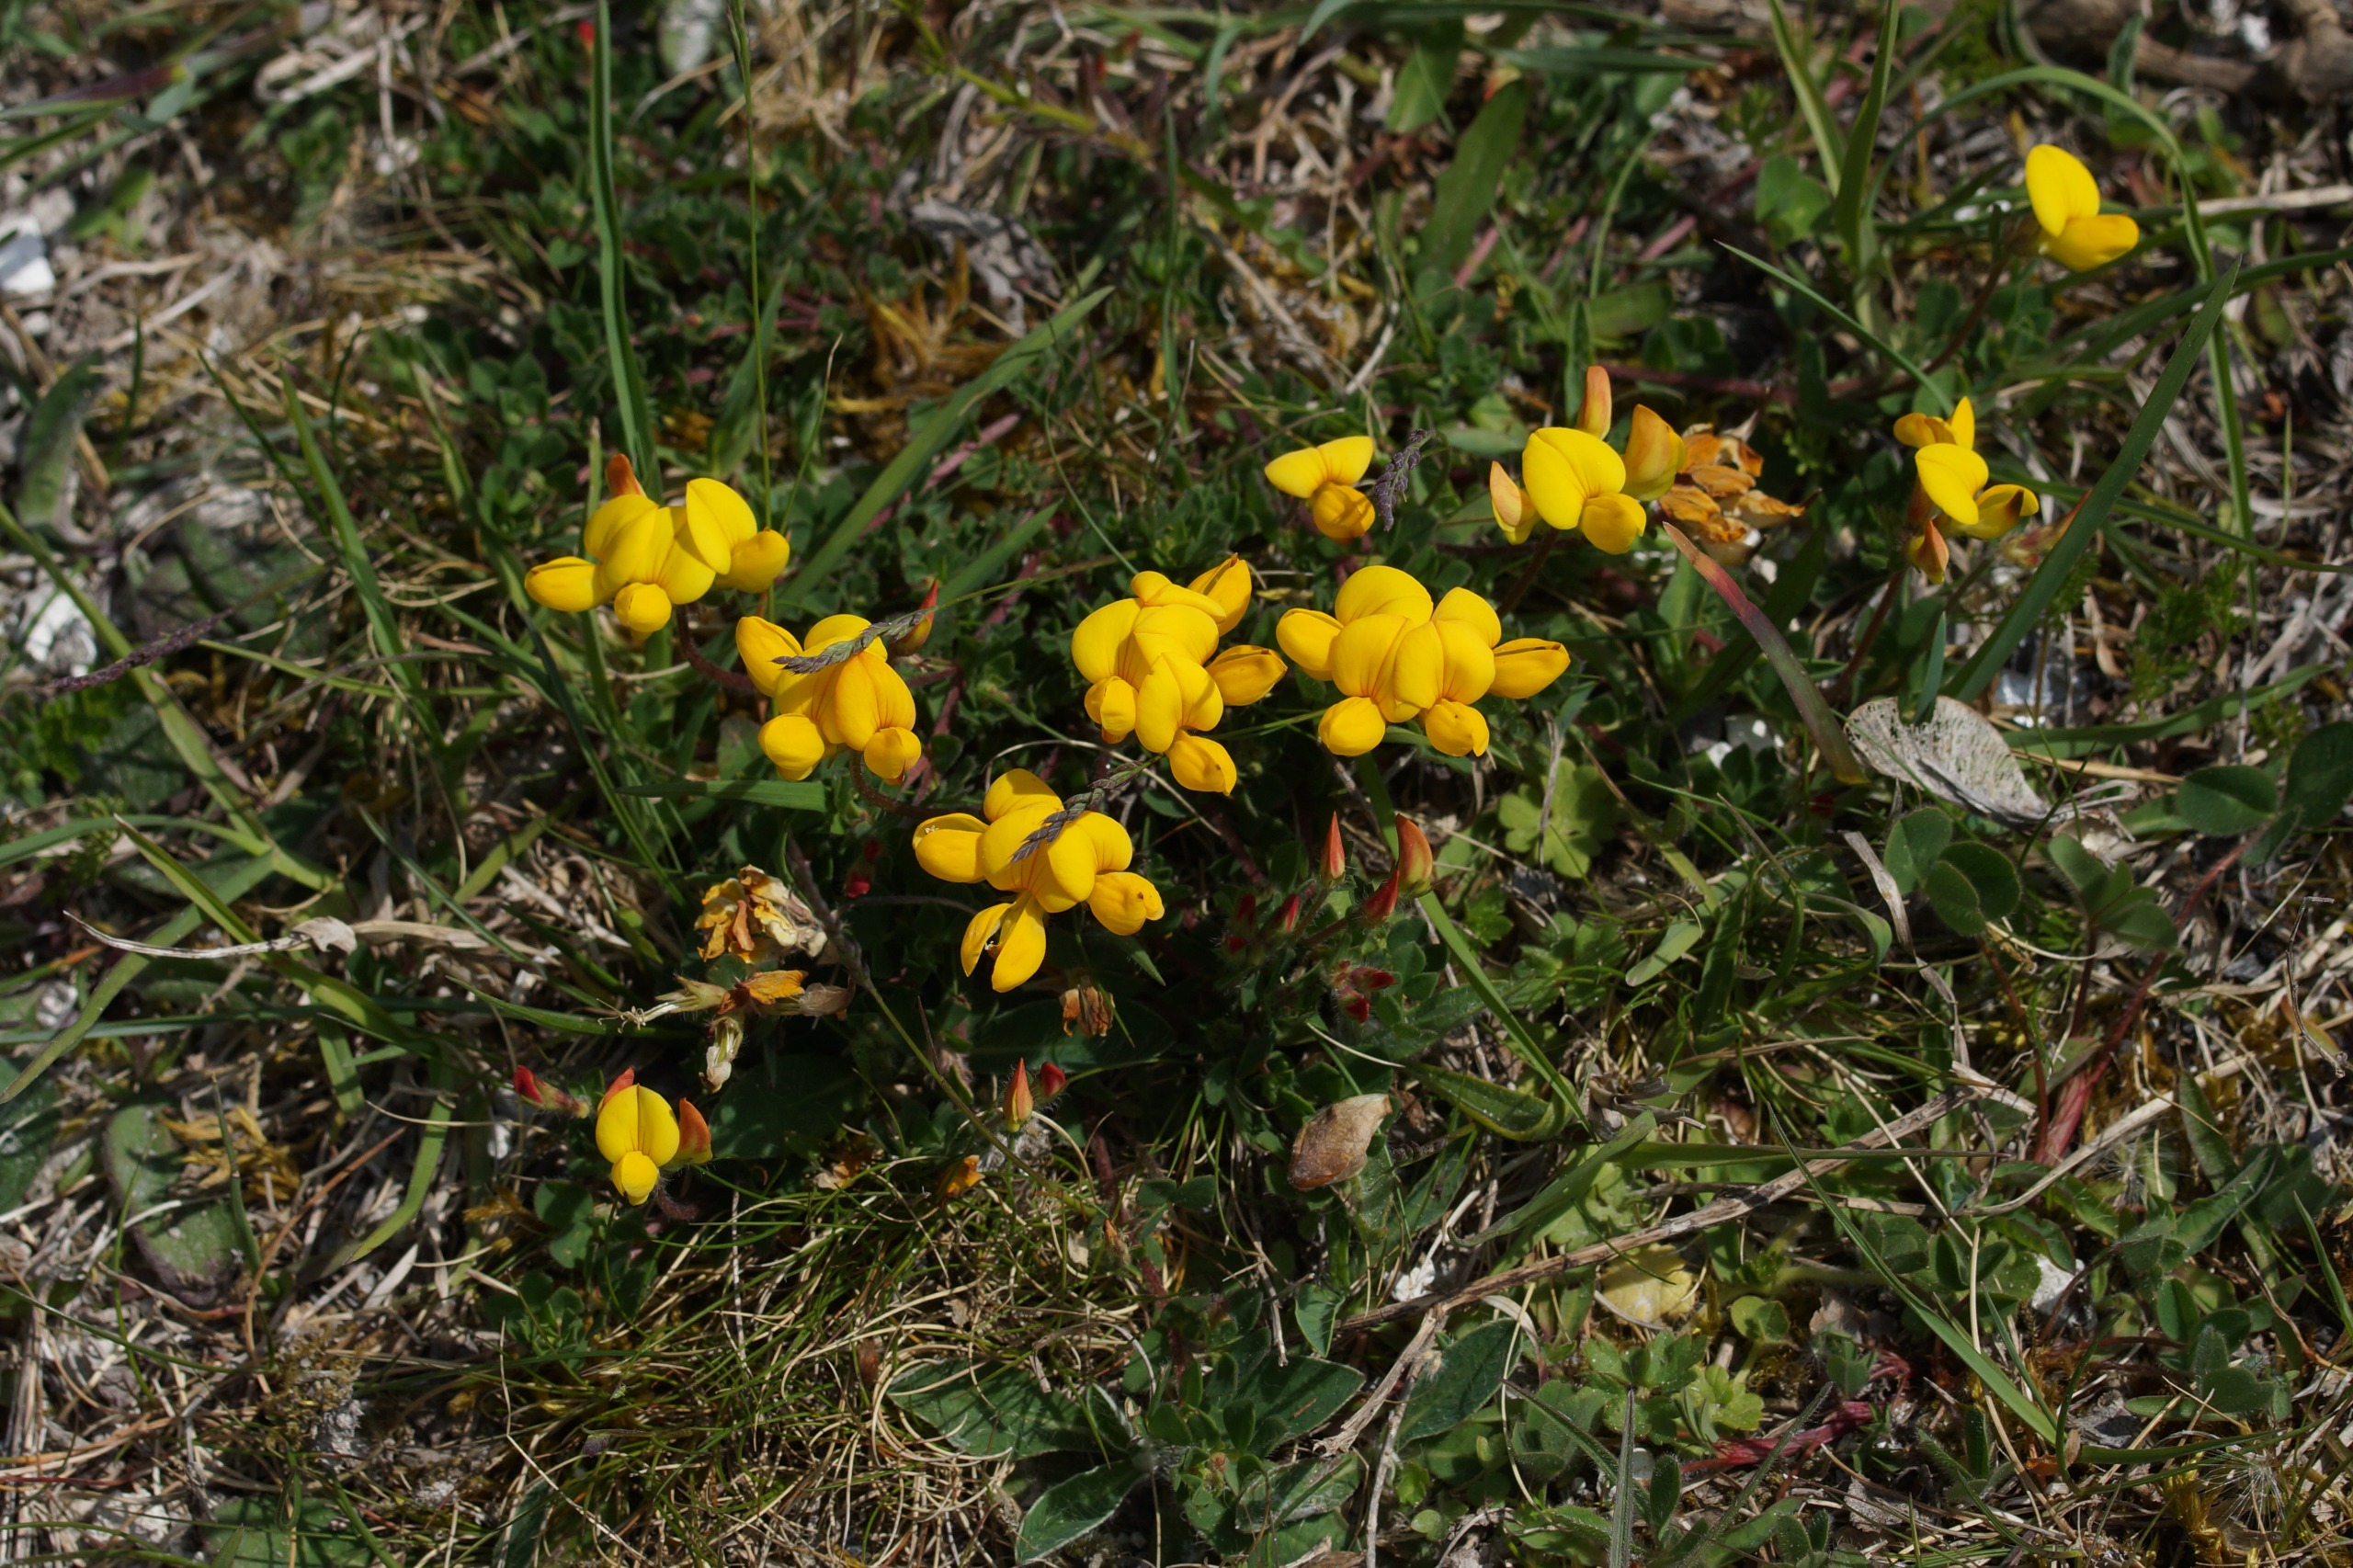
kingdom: Plantae
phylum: Tracheophyta
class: Magnoliopsida
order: Fabales
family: Fabaceae
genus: Lotus
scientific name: Lotus corniculatus
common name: Almindelig kællingetand
